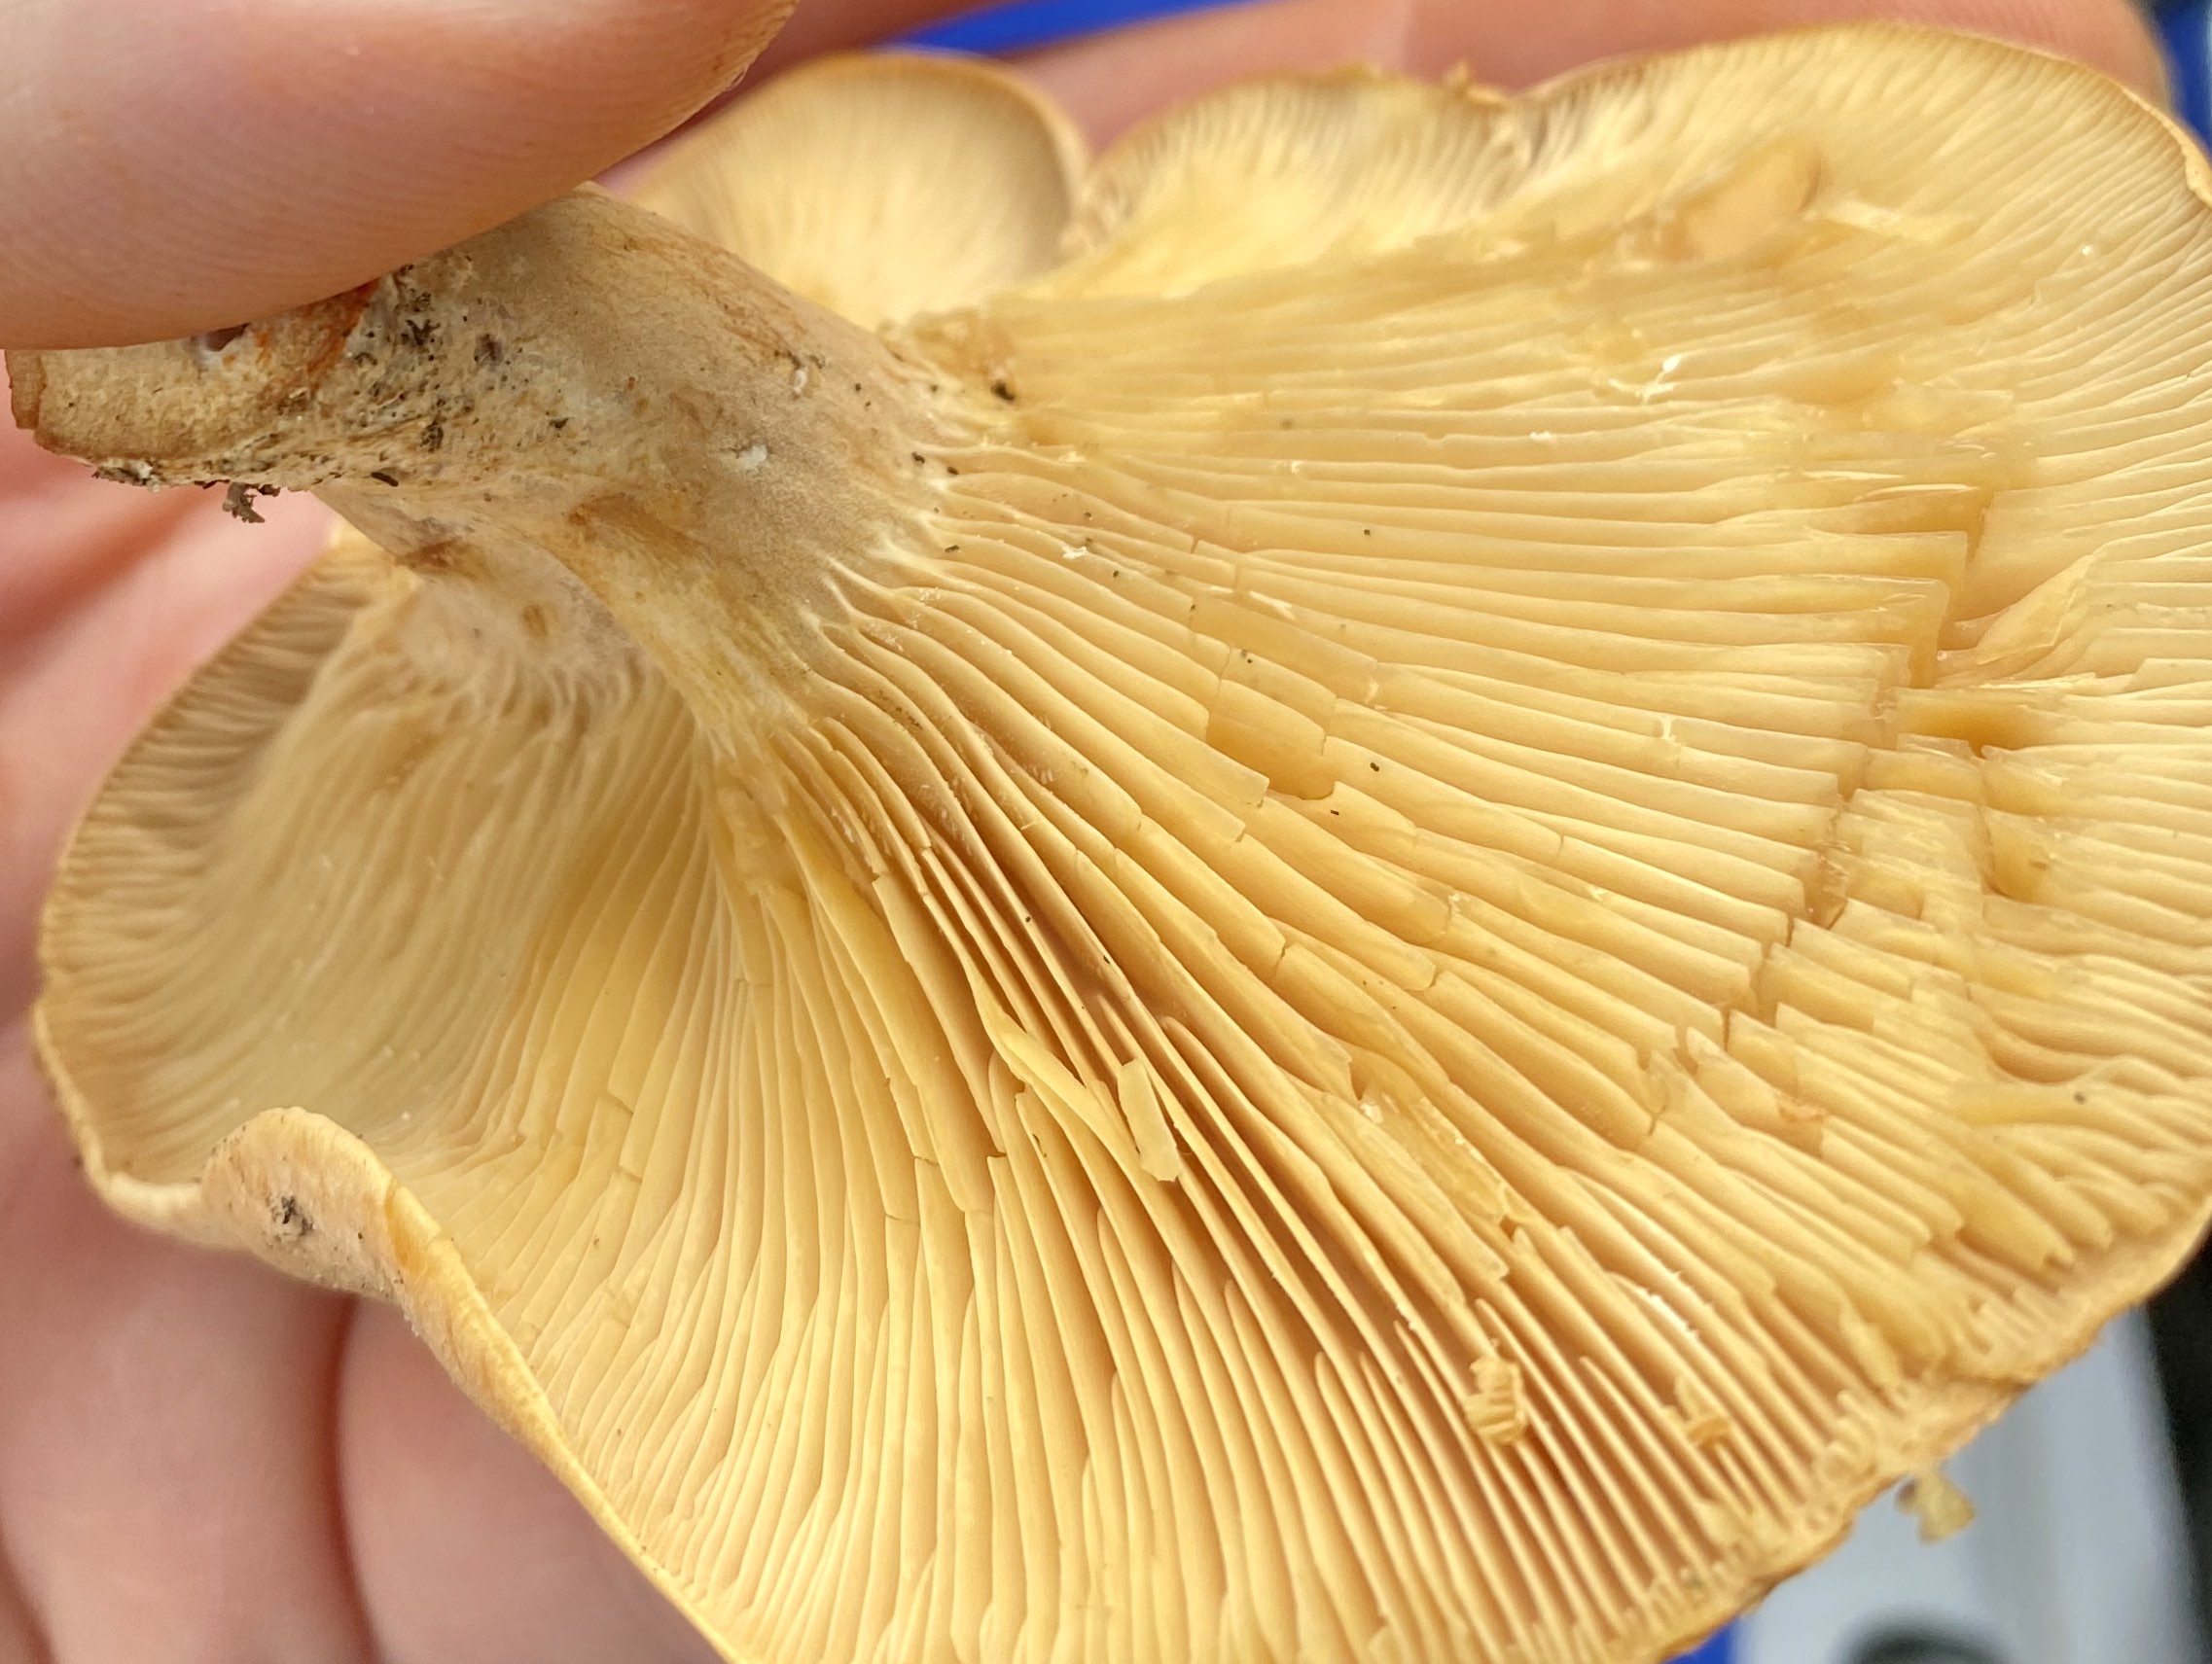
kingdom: Fungi
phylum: Basidiomycota
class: Agaricomycetes
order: Russulales
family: Russulaceae
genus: Lactarius
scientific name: Lactarius helvus
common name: mose-mælkehat
